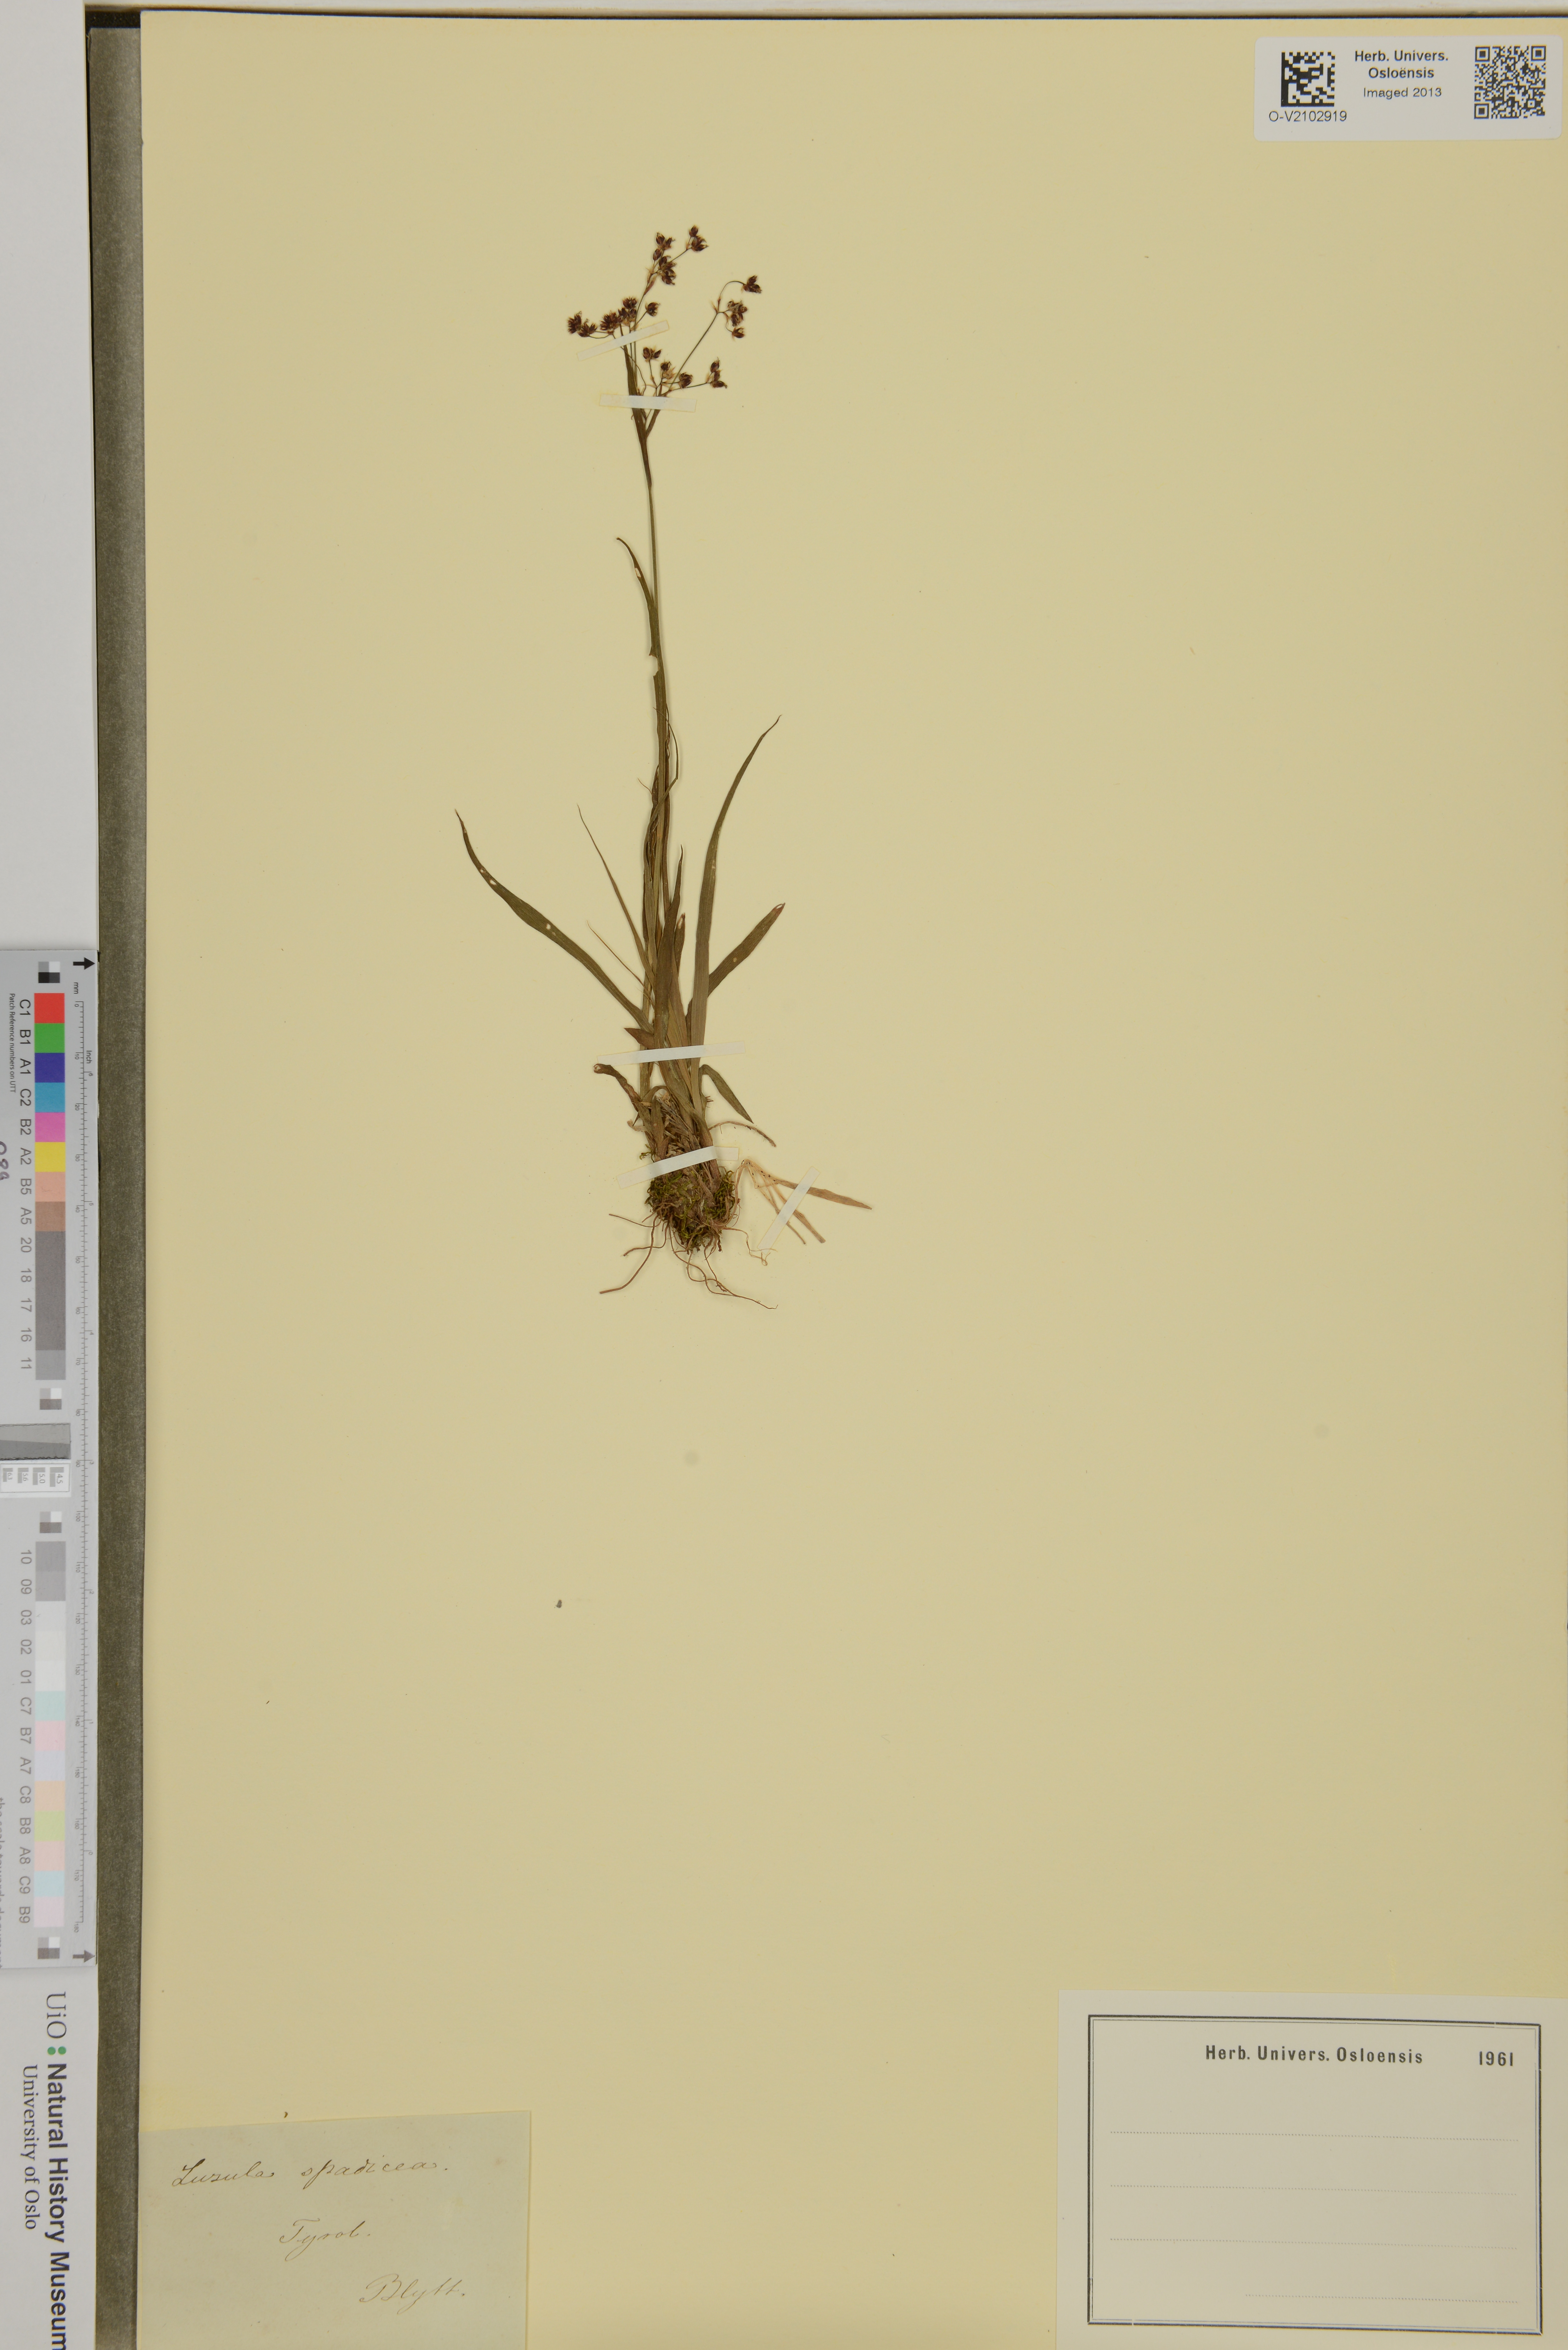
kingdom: Plantae
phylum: Tracheophyta
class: Liliopsida
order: Poales
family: Juncaceae
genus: Luzula
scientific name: Luzula alpinopilosa
